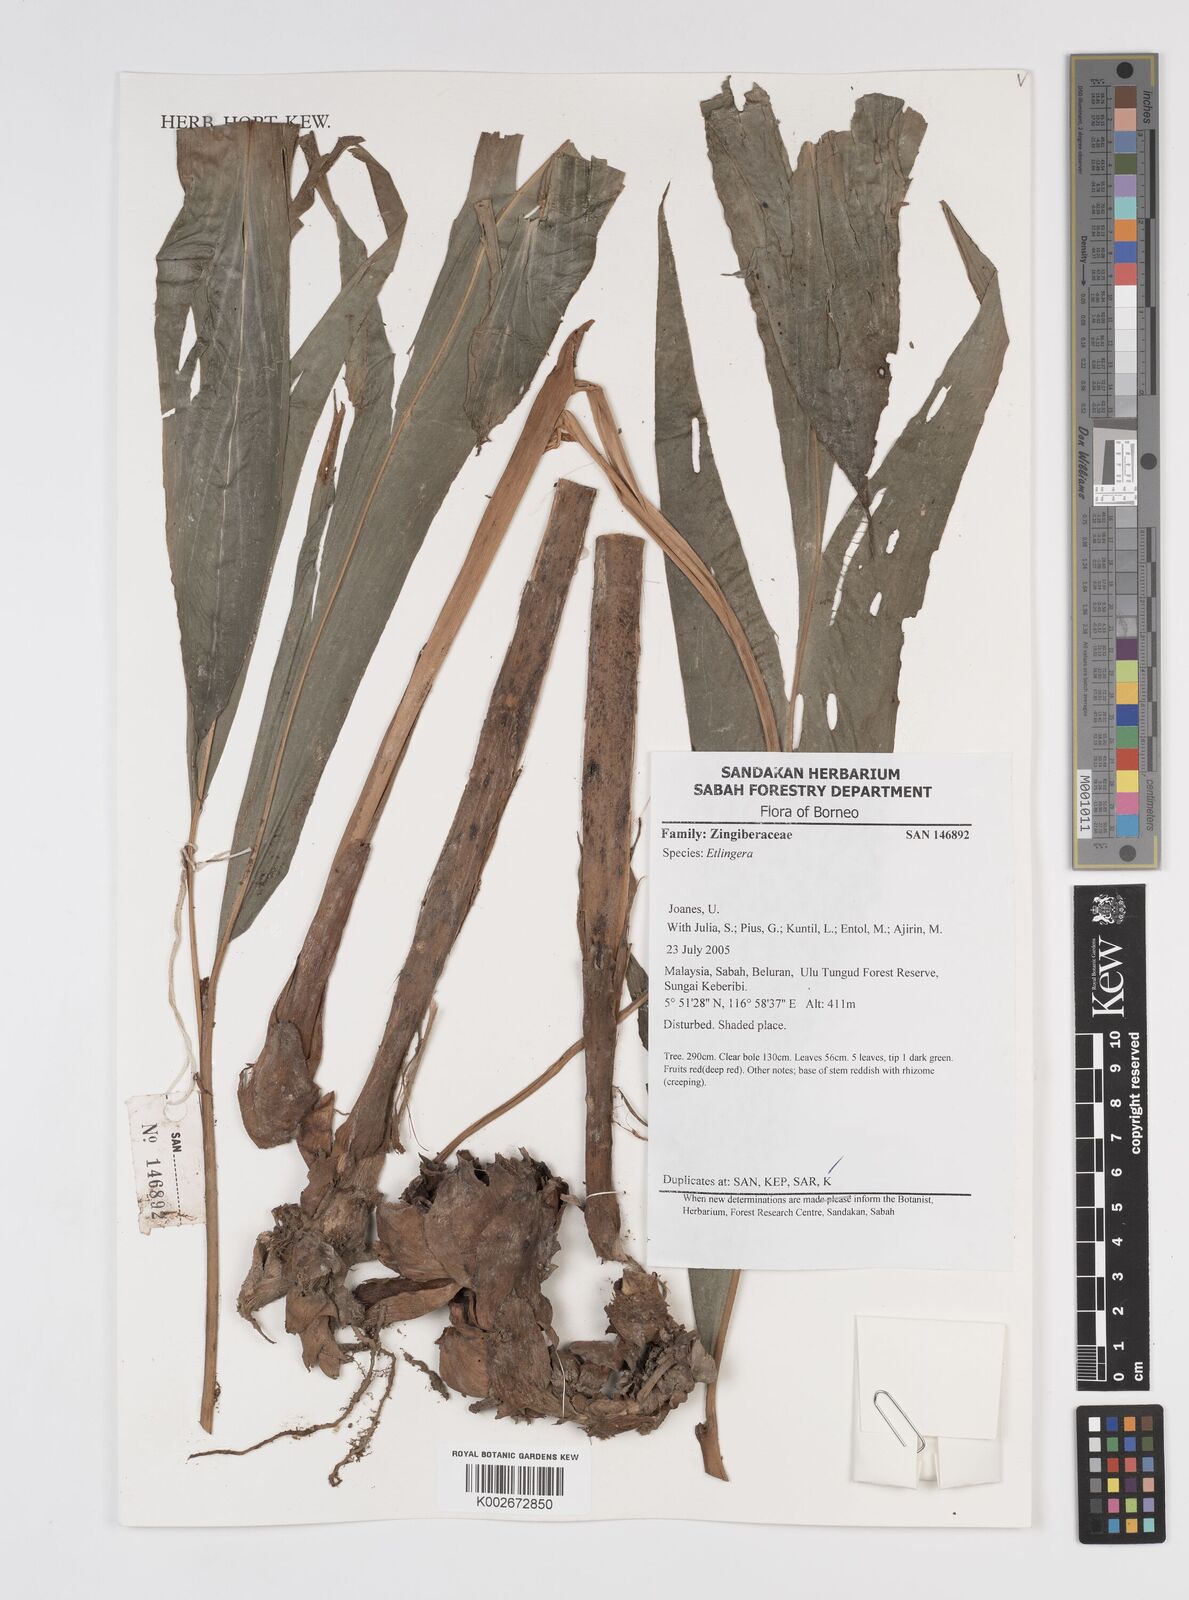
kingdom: Plantae
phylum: Tracheophyta
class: Liliopsida
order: Zingiberales
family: Zingiberaceae
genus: Etlingera
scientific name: Etlingera
